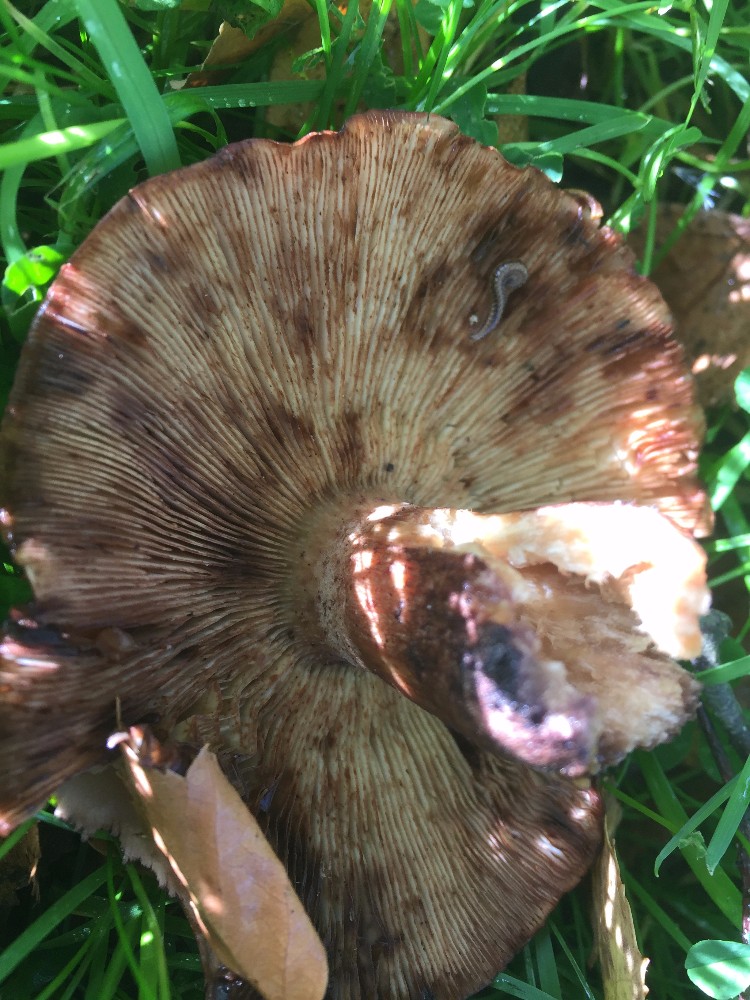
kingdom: Fungi
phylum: Basidiomycota
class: Agaricomycetes
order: Agaricales
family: Tricholomataceae
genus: Tricholoma
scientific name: Tricholoma fulvum
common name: birke-ridderhat
